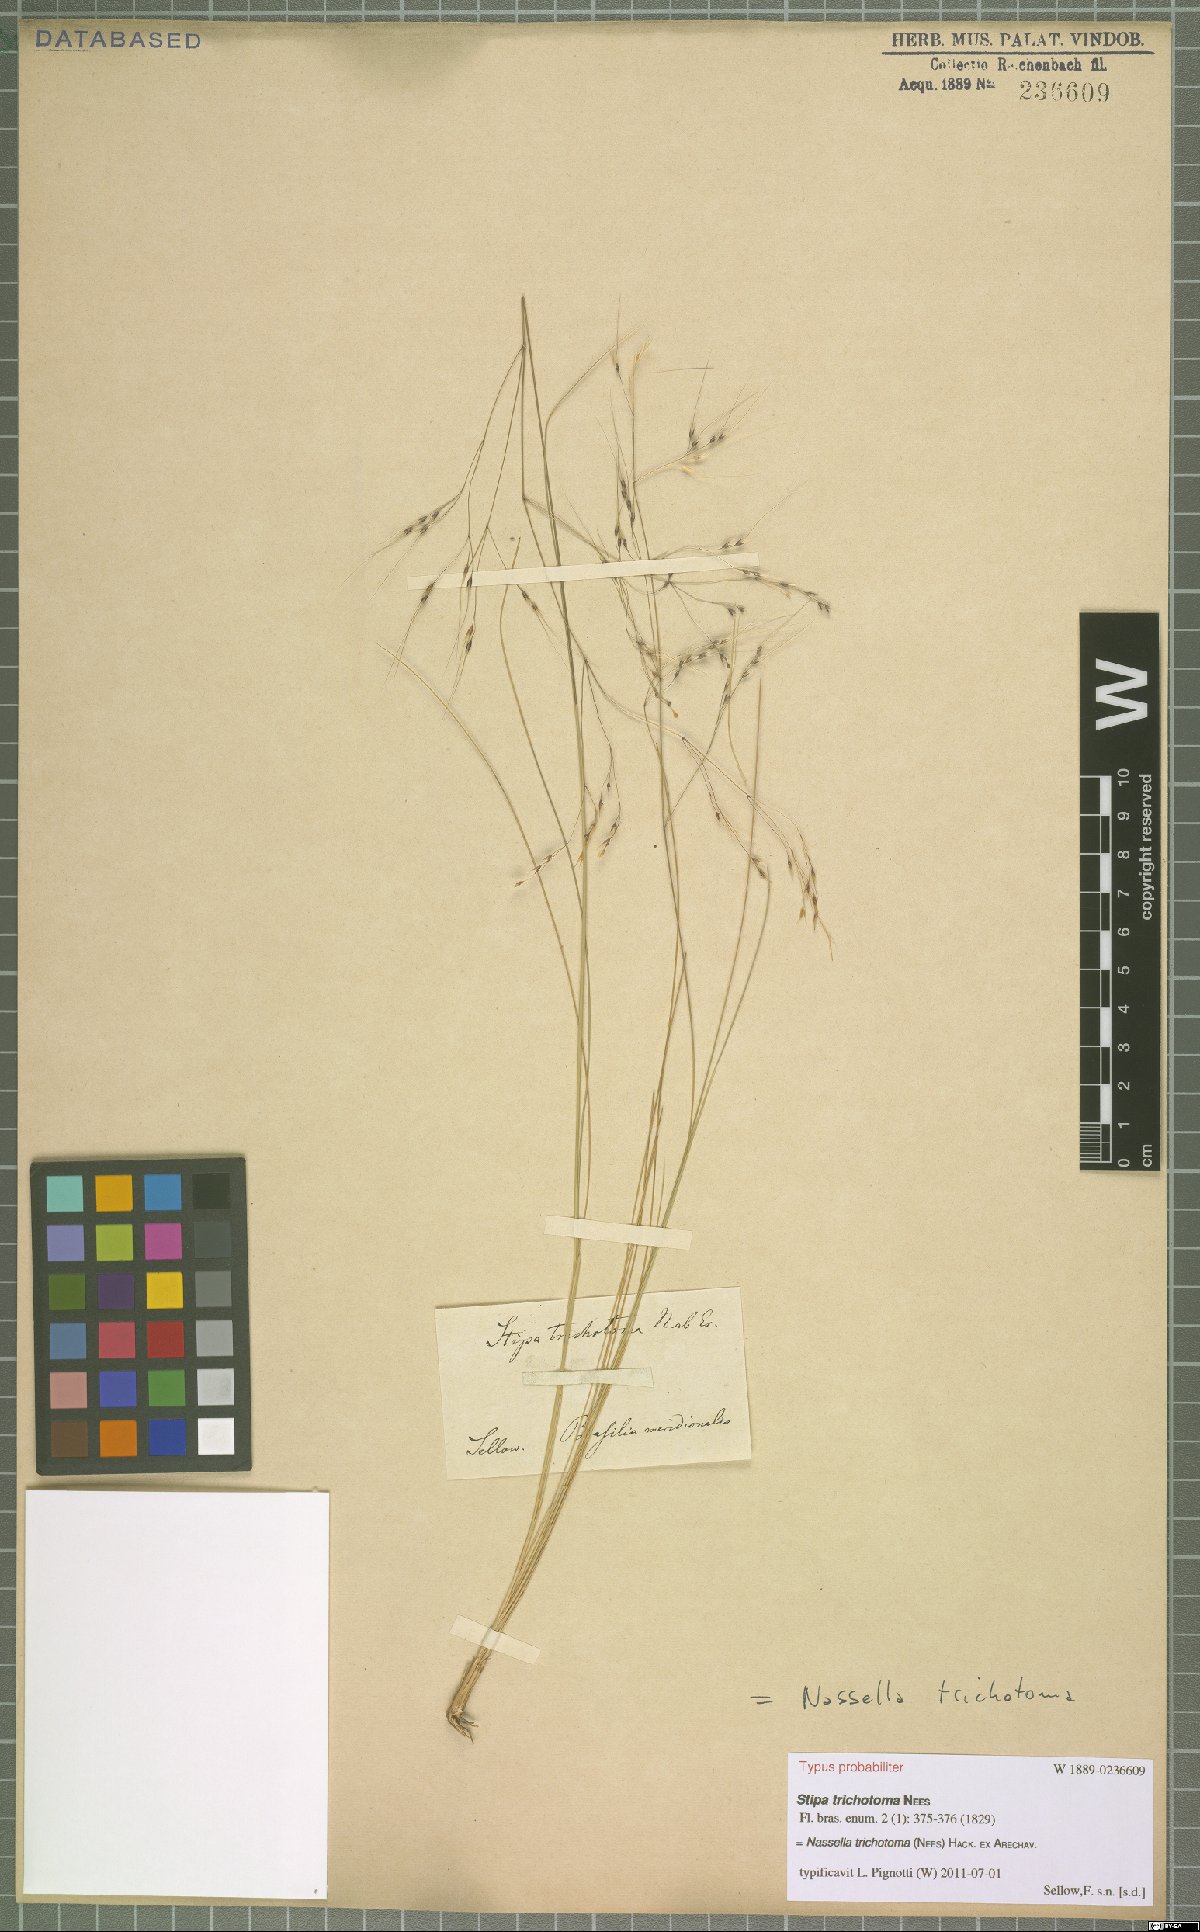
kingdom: Plantae
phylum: Tracheophyta
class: Liliopsida
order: Poales
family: Poaceae
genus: Nassella
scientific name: Nassella trichotoma
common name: Serrated tussock grass
